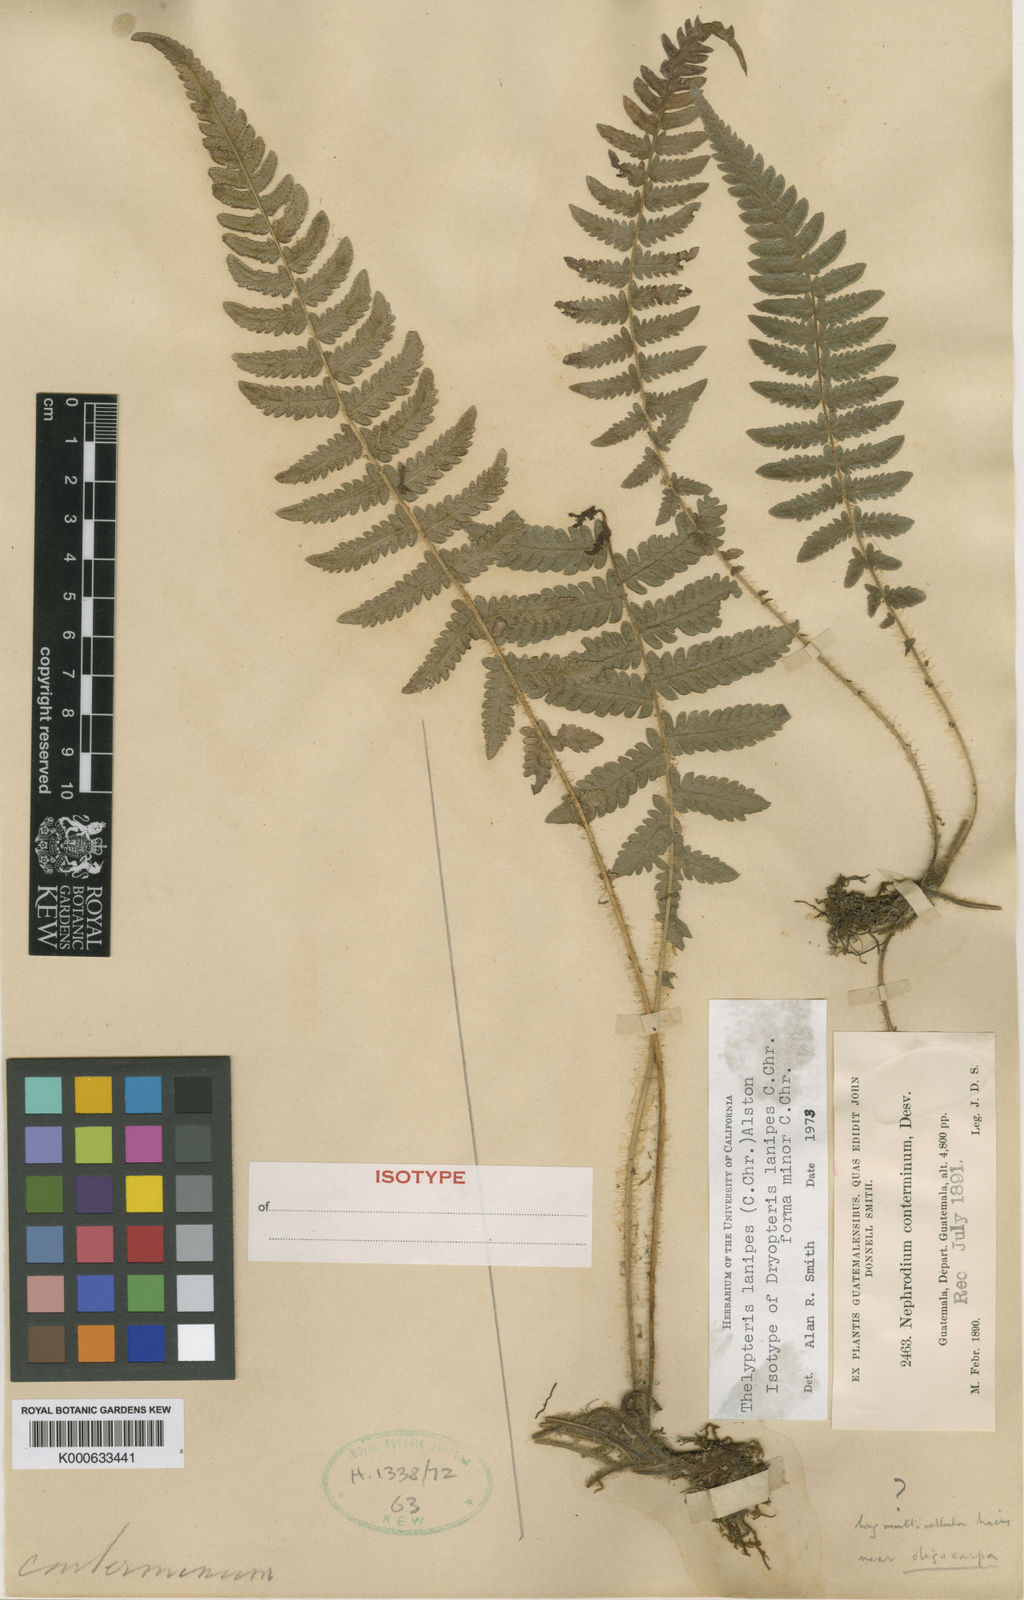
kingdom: Plantae
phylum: Tracheophyta
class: Polypodiopsida
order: Polypodiales
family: Thelypteridaceae
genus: Christella
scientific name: Christella
